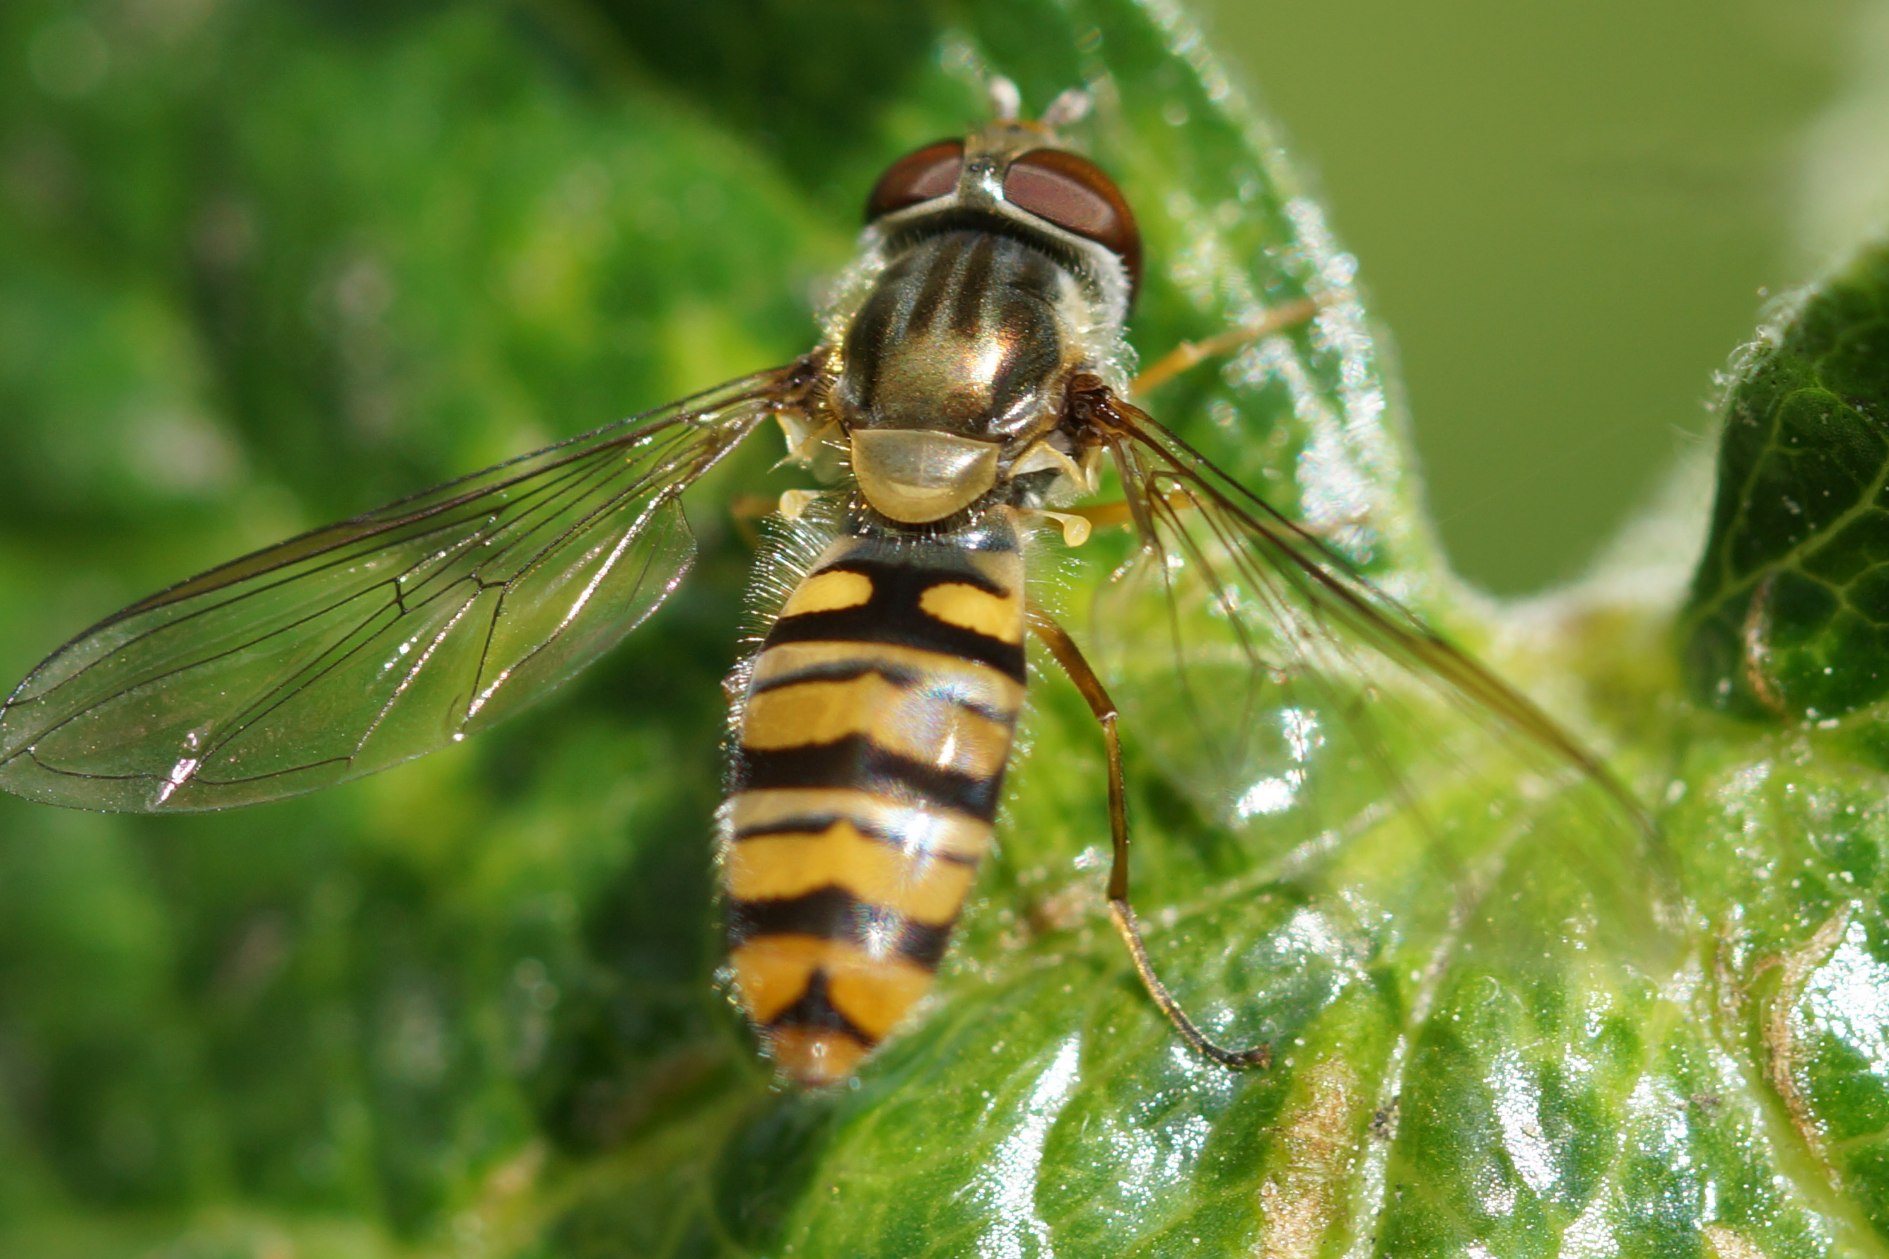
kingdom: Animalia
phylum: Arthropoda
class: Insecta
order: Diptera
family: Syrphidae
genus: Episyrphus
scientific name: Episyrphus balteatus
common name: Dobbeltbåndet svirreflue
